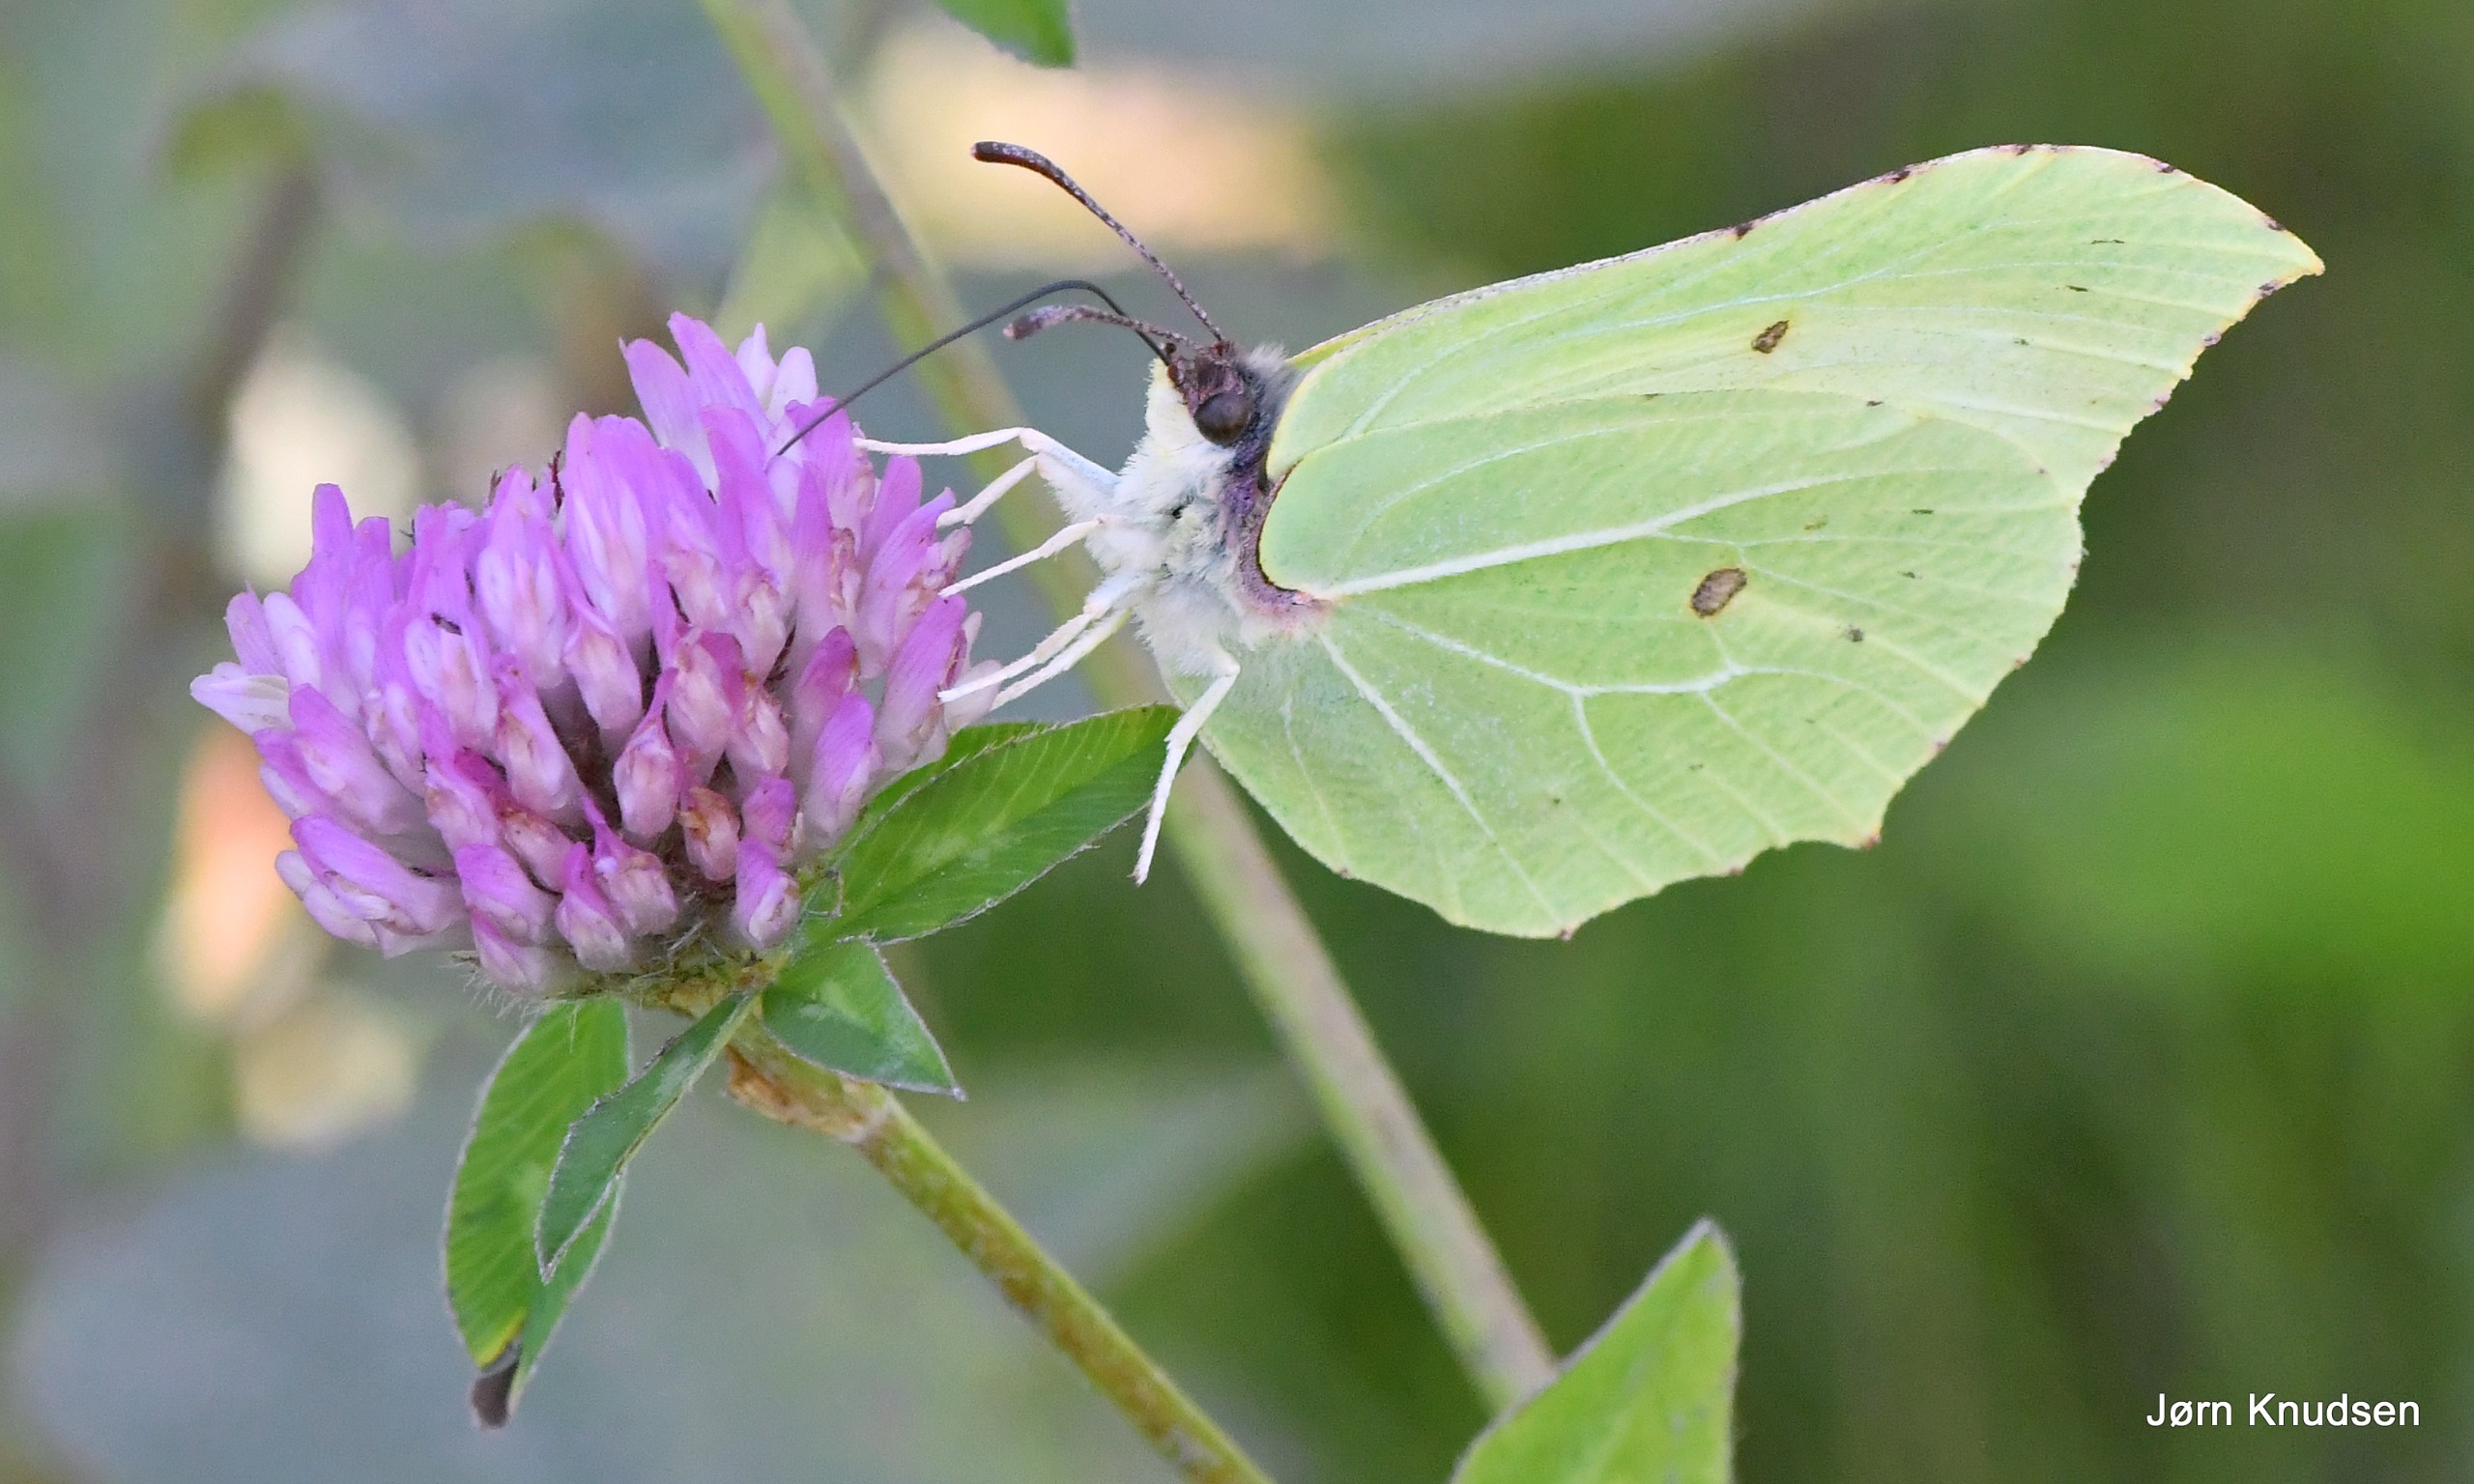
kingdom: Animalia
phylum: Arthropoda
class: Insecta
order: Lepidoptera
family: Pieridae
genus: Gonepteryx
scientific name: Gonepteryx rhamni
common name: Citronsommerfugl
